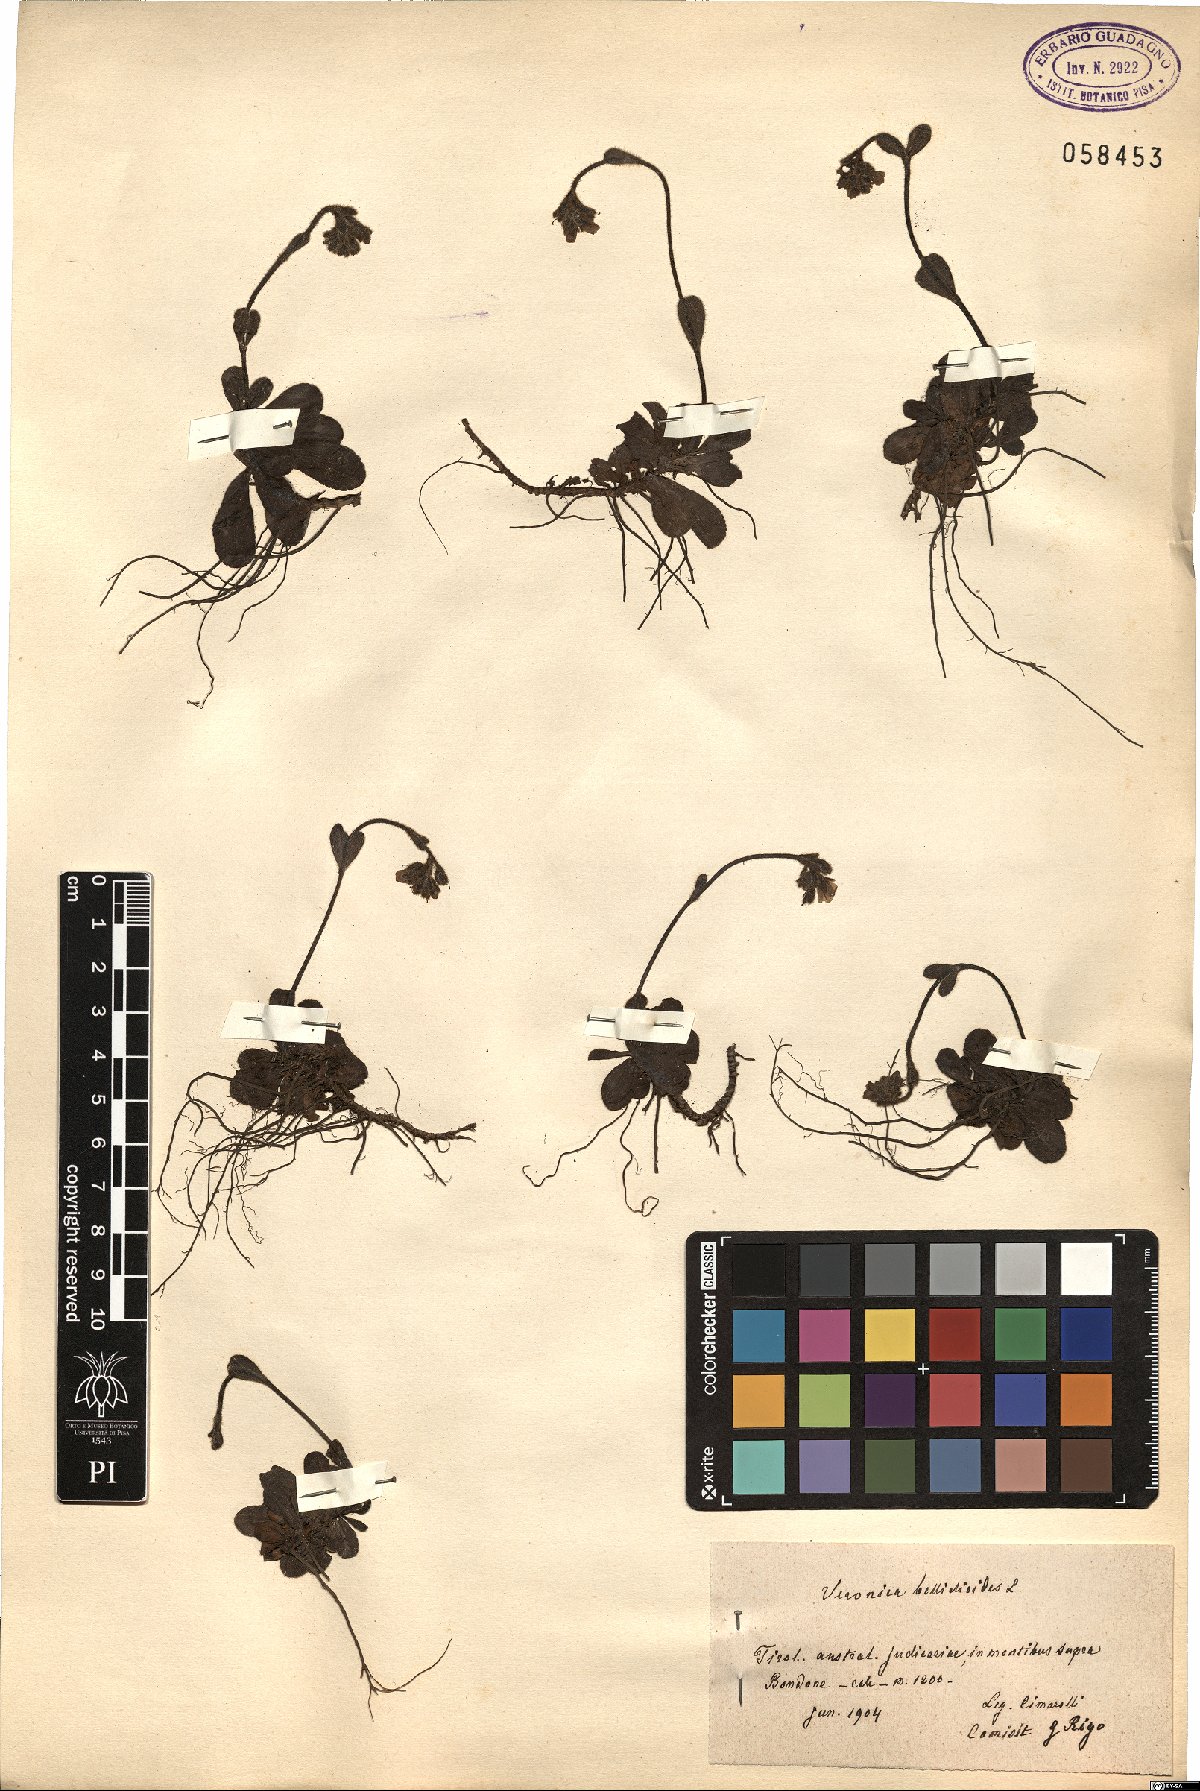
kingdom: Plantae
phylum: Tracheophyta
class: Magnoliopsida
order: Lamiales
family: Plantaginaceae
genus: Veronica
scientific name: Veronica bellidioides
